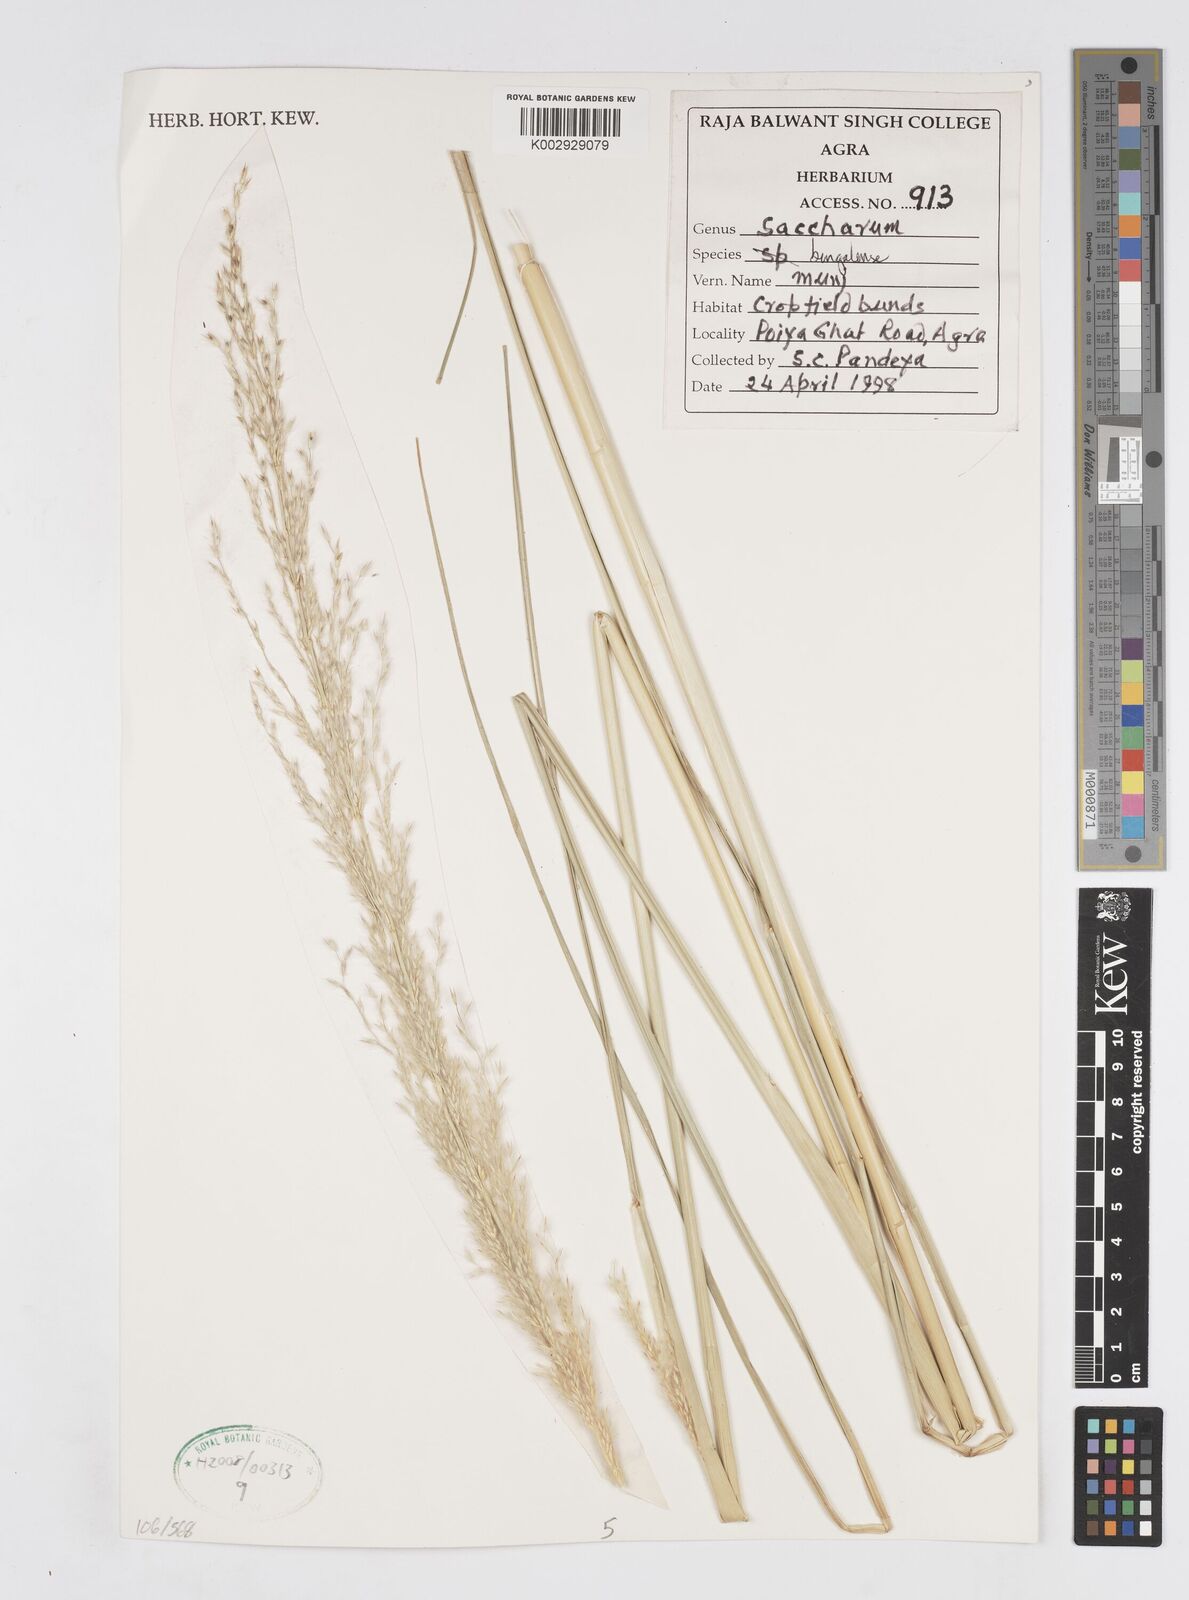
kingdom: Plantae
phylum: Tracheophyta
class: Liliopsida
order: Poales
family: Poaceae
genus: Tripidium
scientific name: Tripidium bengalense
